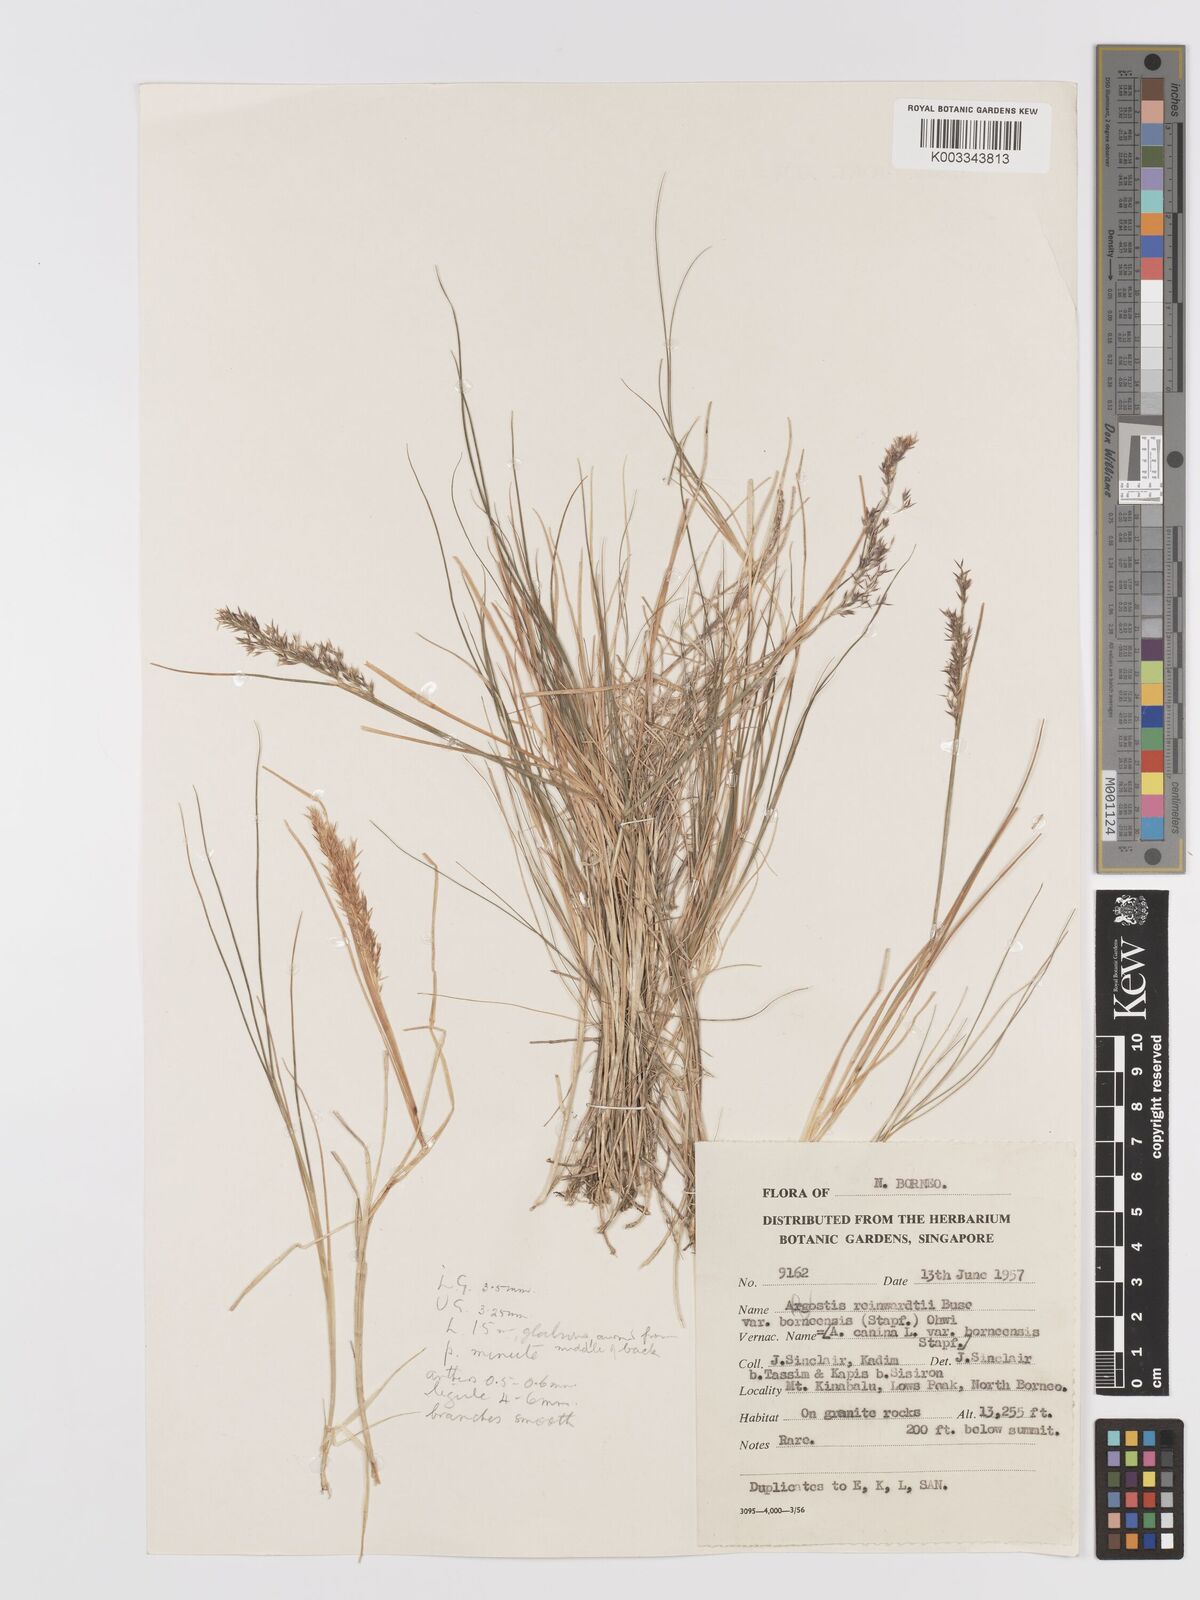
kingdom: Plantae
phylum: Tracheophyta
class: Liliopsida
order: Poales
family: Poaceae
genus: Agrostis
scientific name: Agrostis infirma
